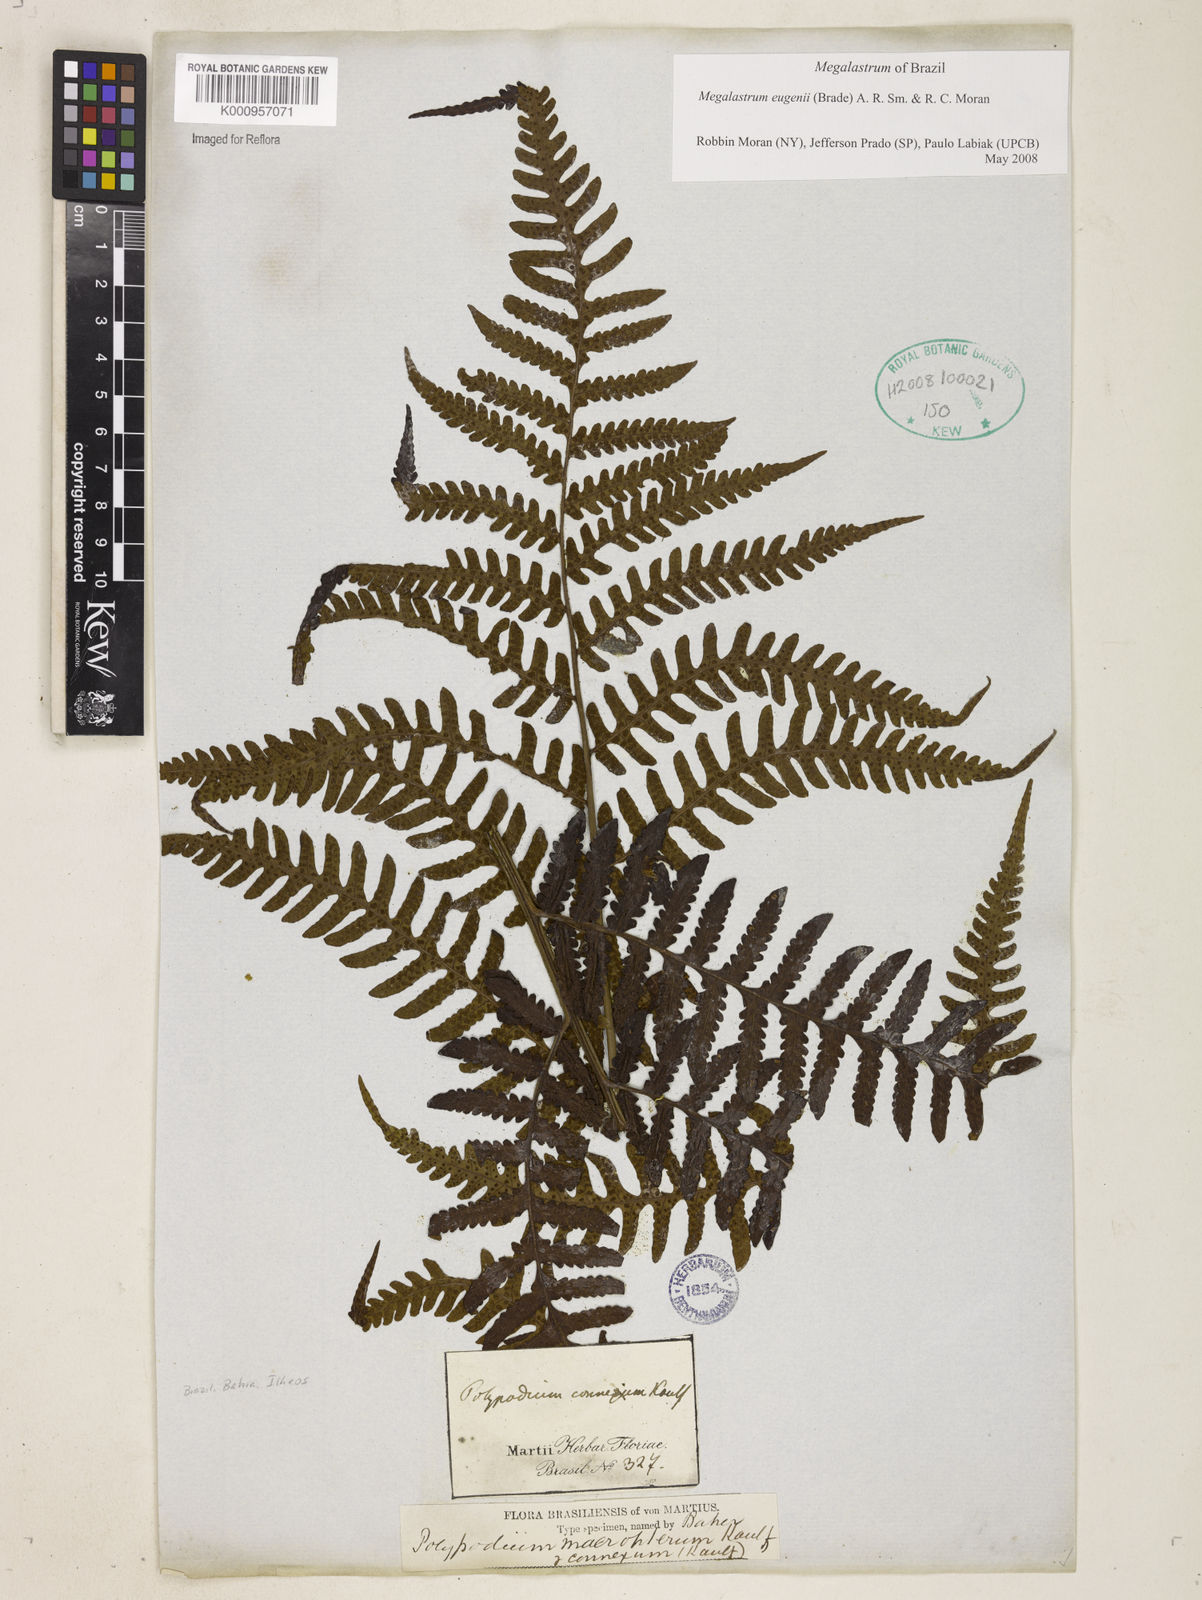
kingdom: Plantae
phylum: Tracheophyta
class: Polypodiopsida
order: Polypodiales
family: Dryopteridaceae
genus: Megalastrum
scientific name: Megalastrum grande
